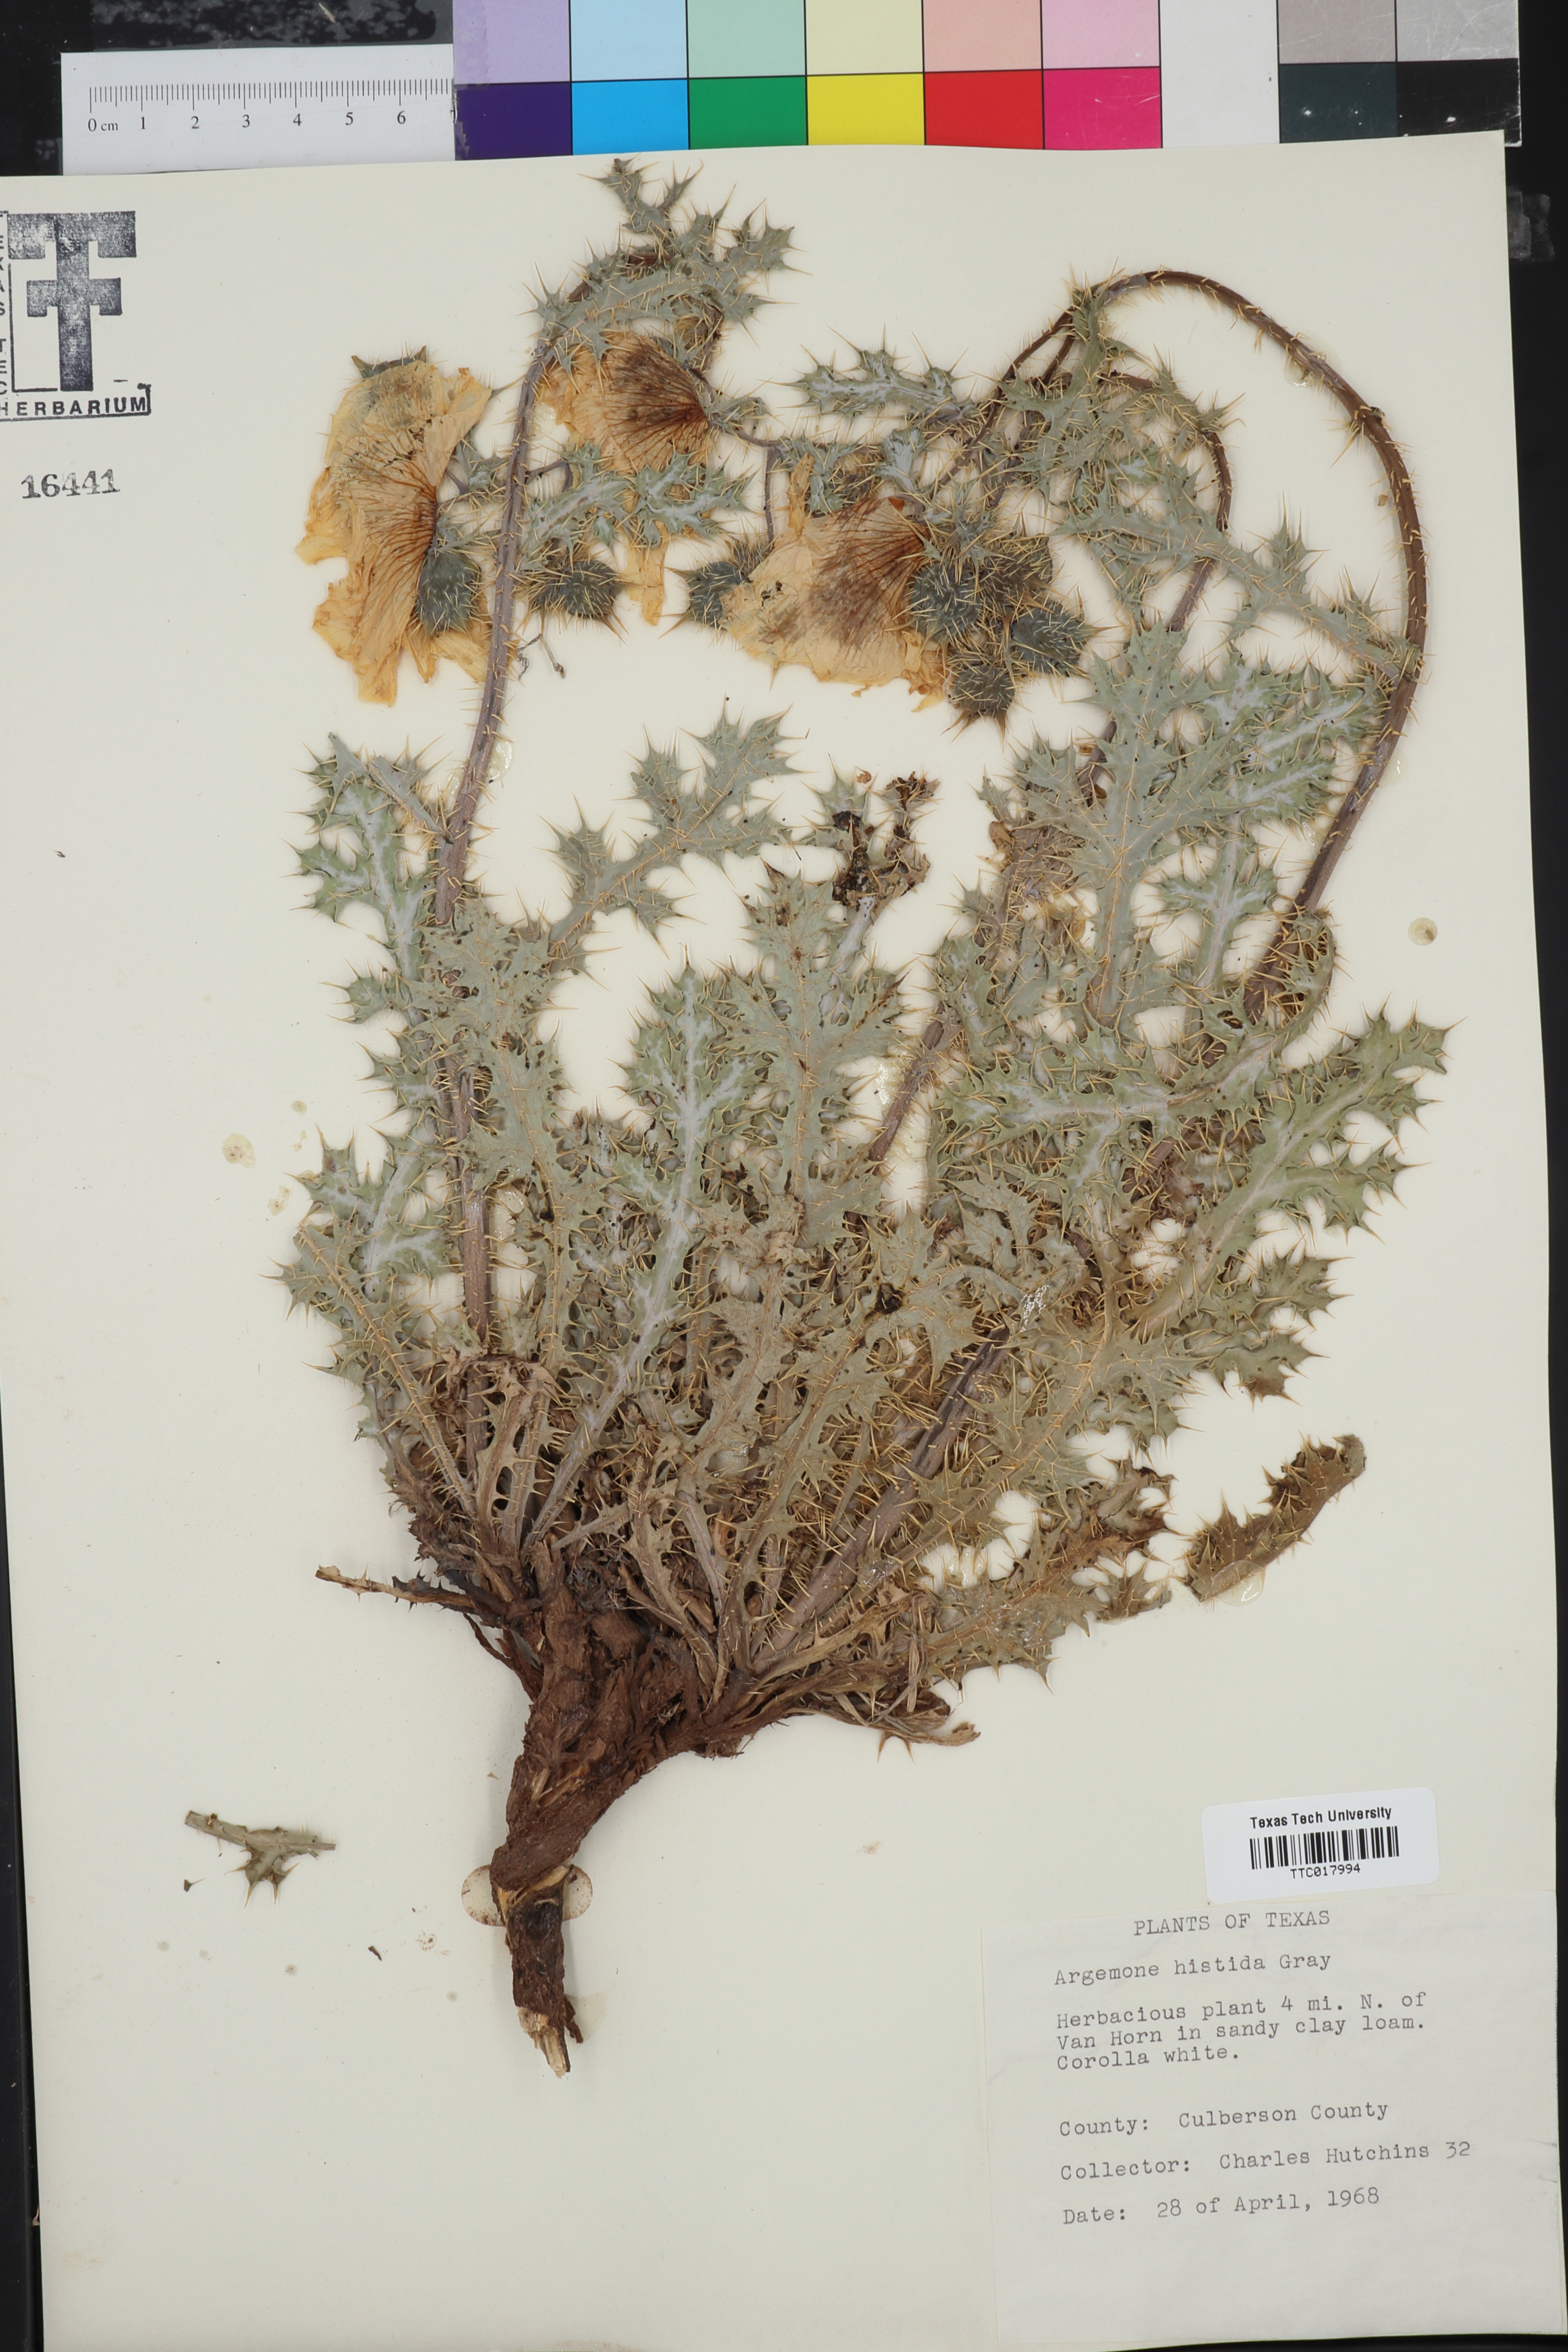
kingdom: Plantae
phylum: Tracheophyta
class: Magnoliopsida
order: Ranunculales
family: Papaveraceae
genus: Argemone
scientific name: Argemone hispida
